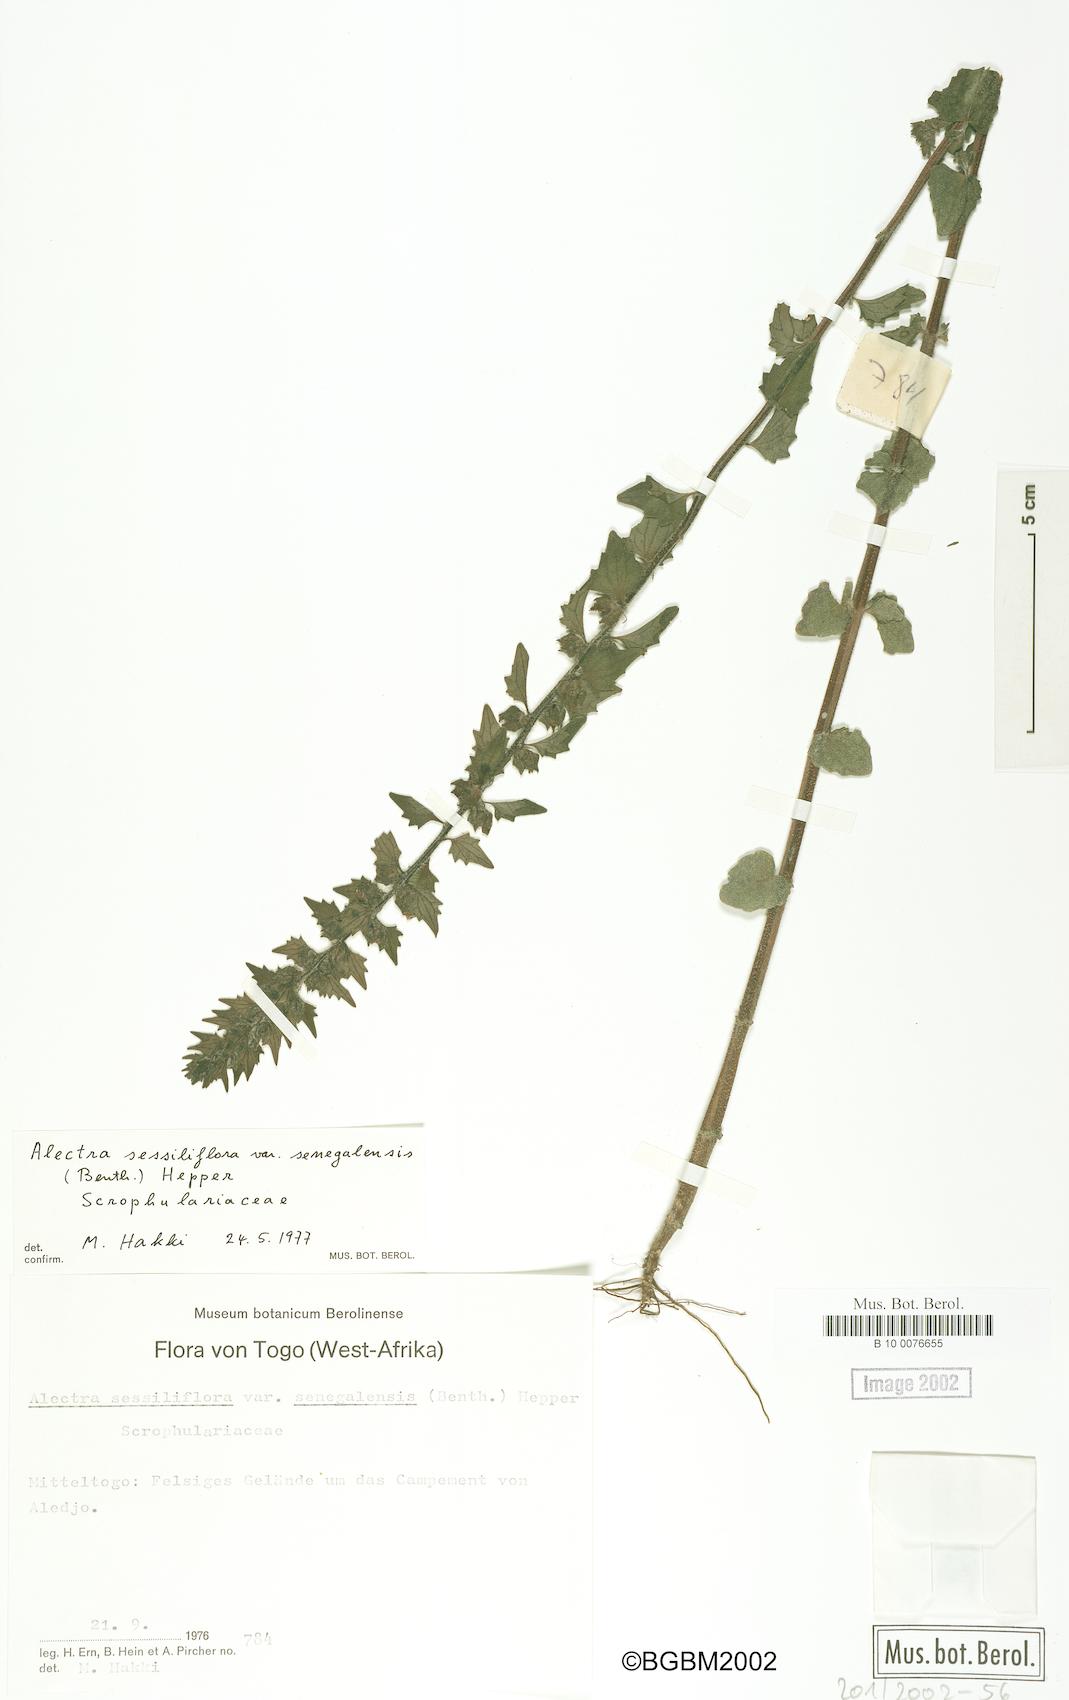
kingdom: Plantae
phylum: Tracheophyta
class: Magnoliopsida
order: Lamiales
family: Orobanchaceae
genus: Alectra
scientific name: Alectra sessiliflora
